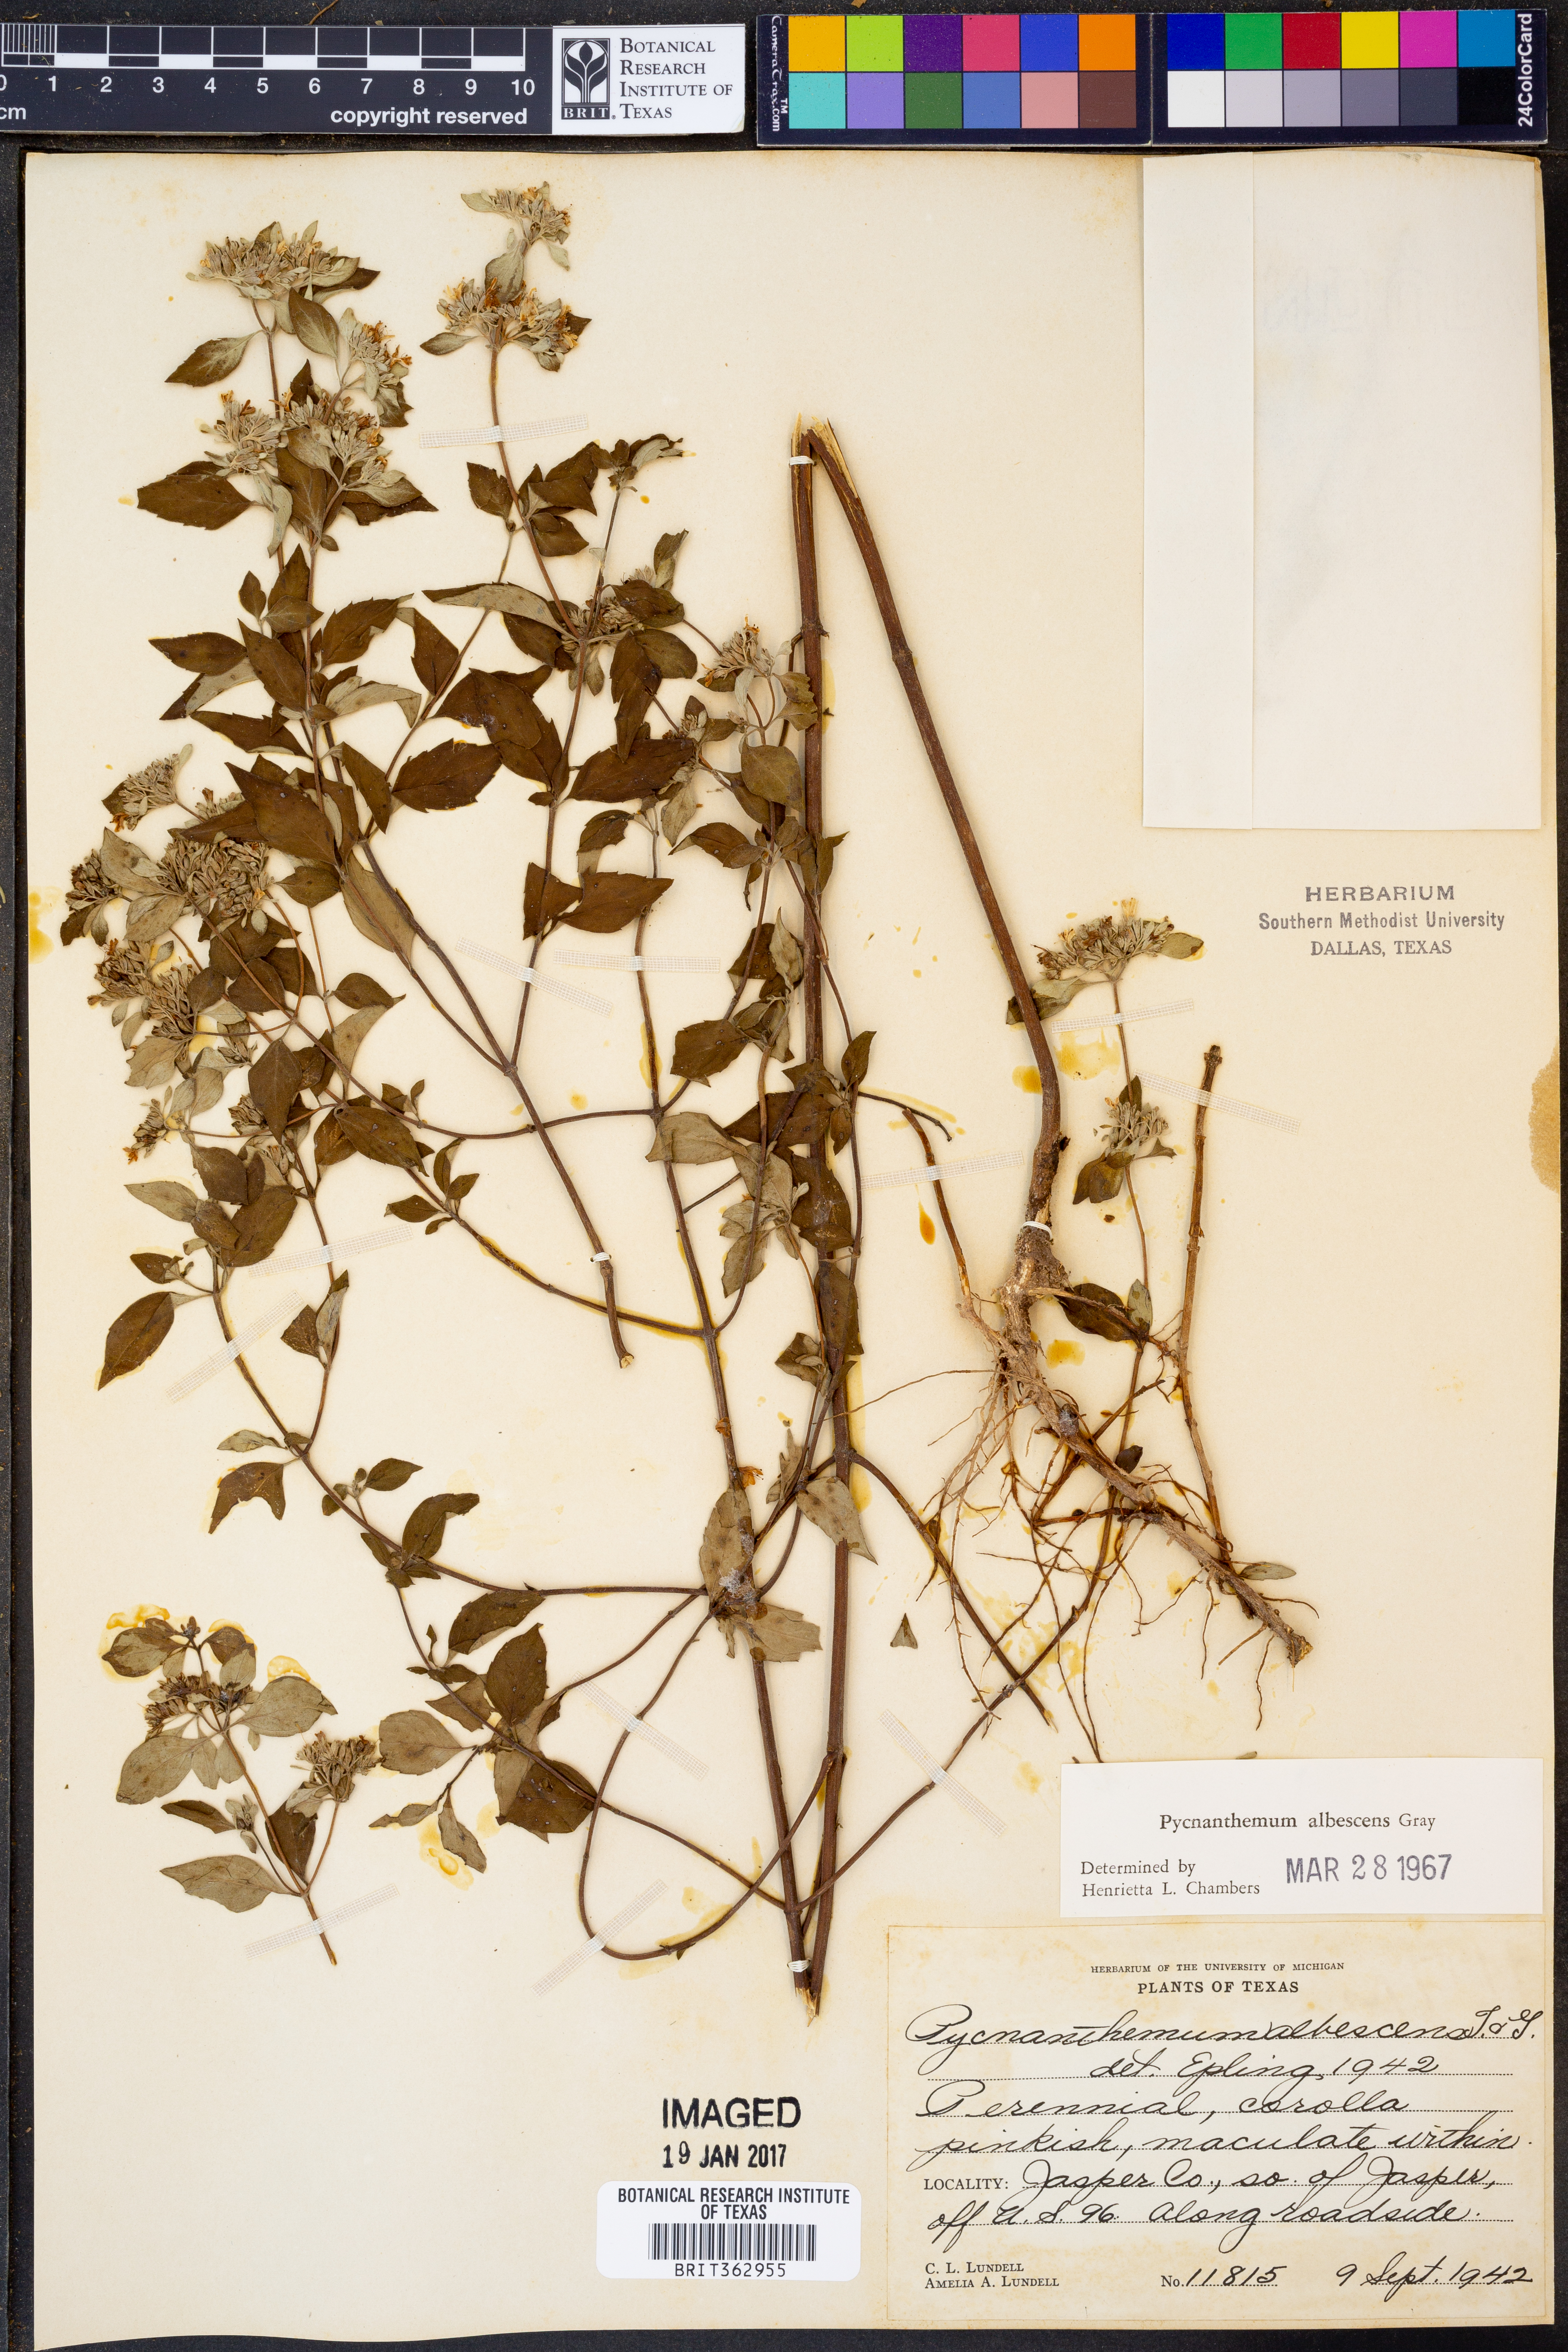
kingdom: Plantae
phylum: Tracheophyta
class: Magnoliopsida
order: Lamiales
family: Lamiaceae
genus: Pycnanthemum
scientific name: Pycnanthemum albescens
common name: White-leaf mountain-mint
